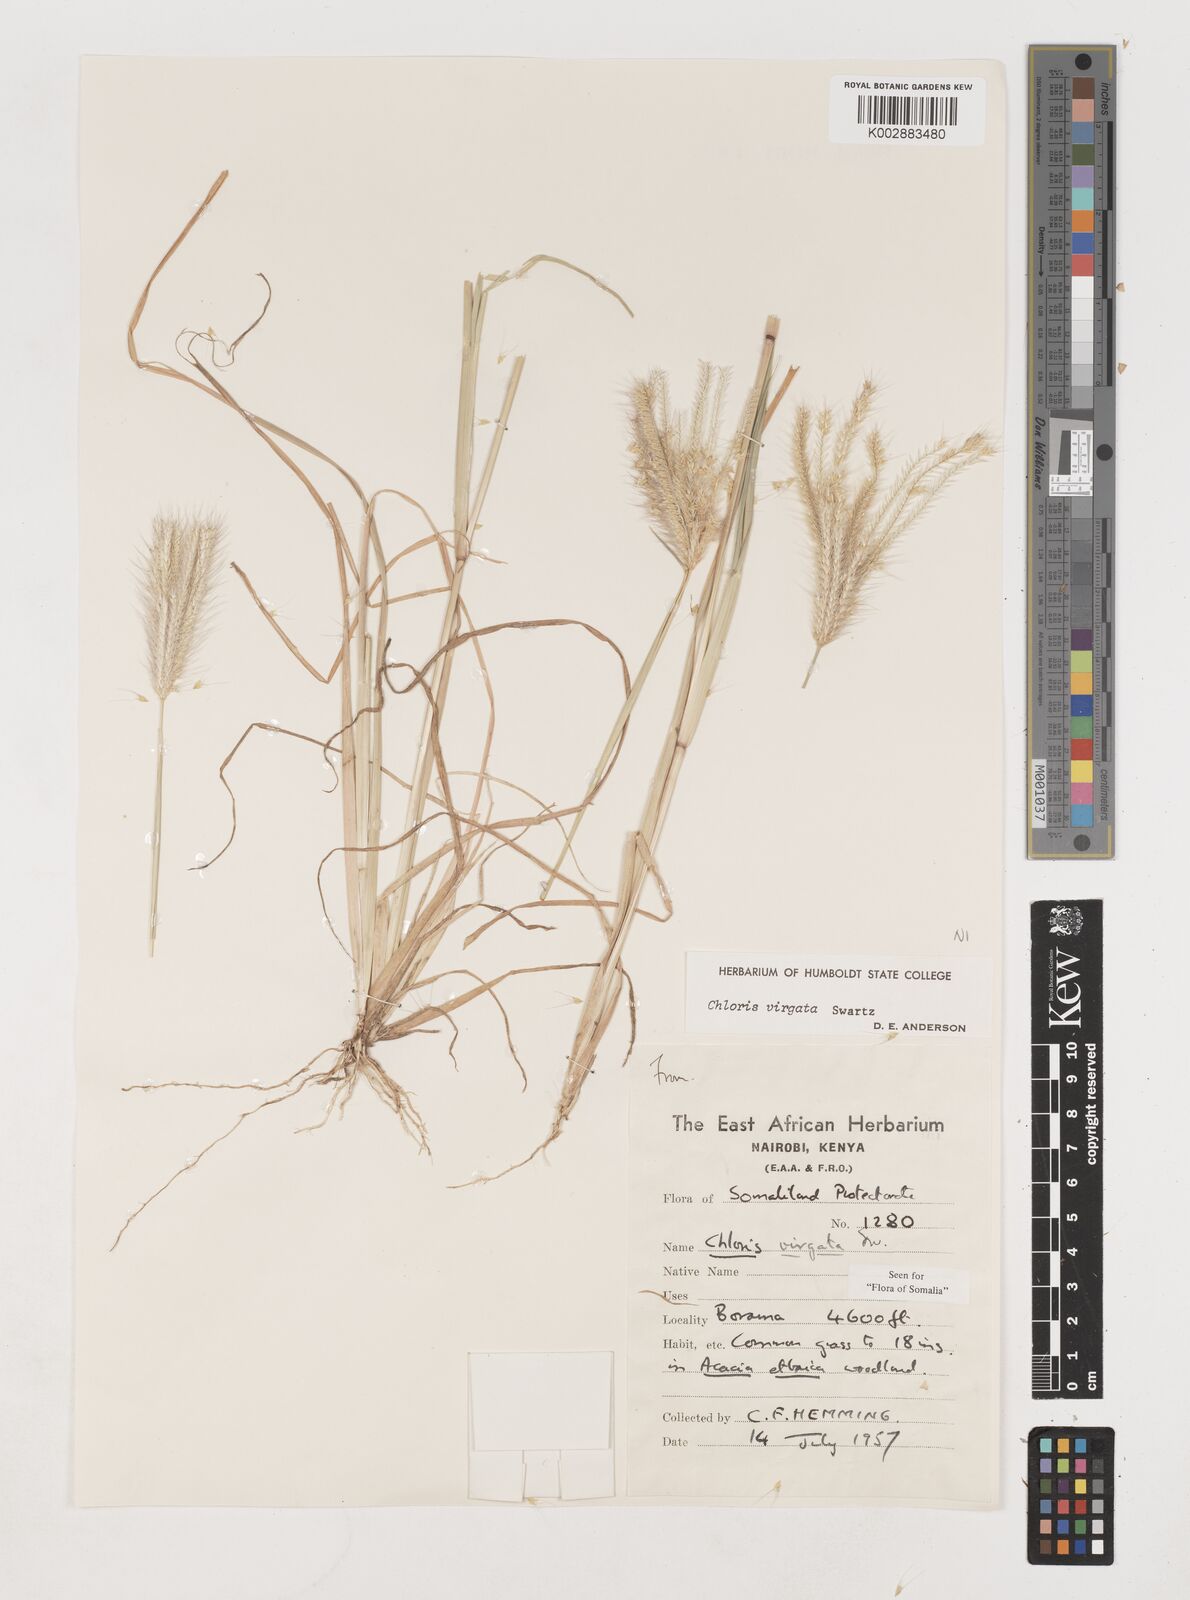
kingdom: Plantae
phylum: Tracheophyta
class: Liliopsida
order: Poales
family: Poaceae
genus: Chloris
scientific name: Chloris virgata
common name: Feathery rhodes-grass
